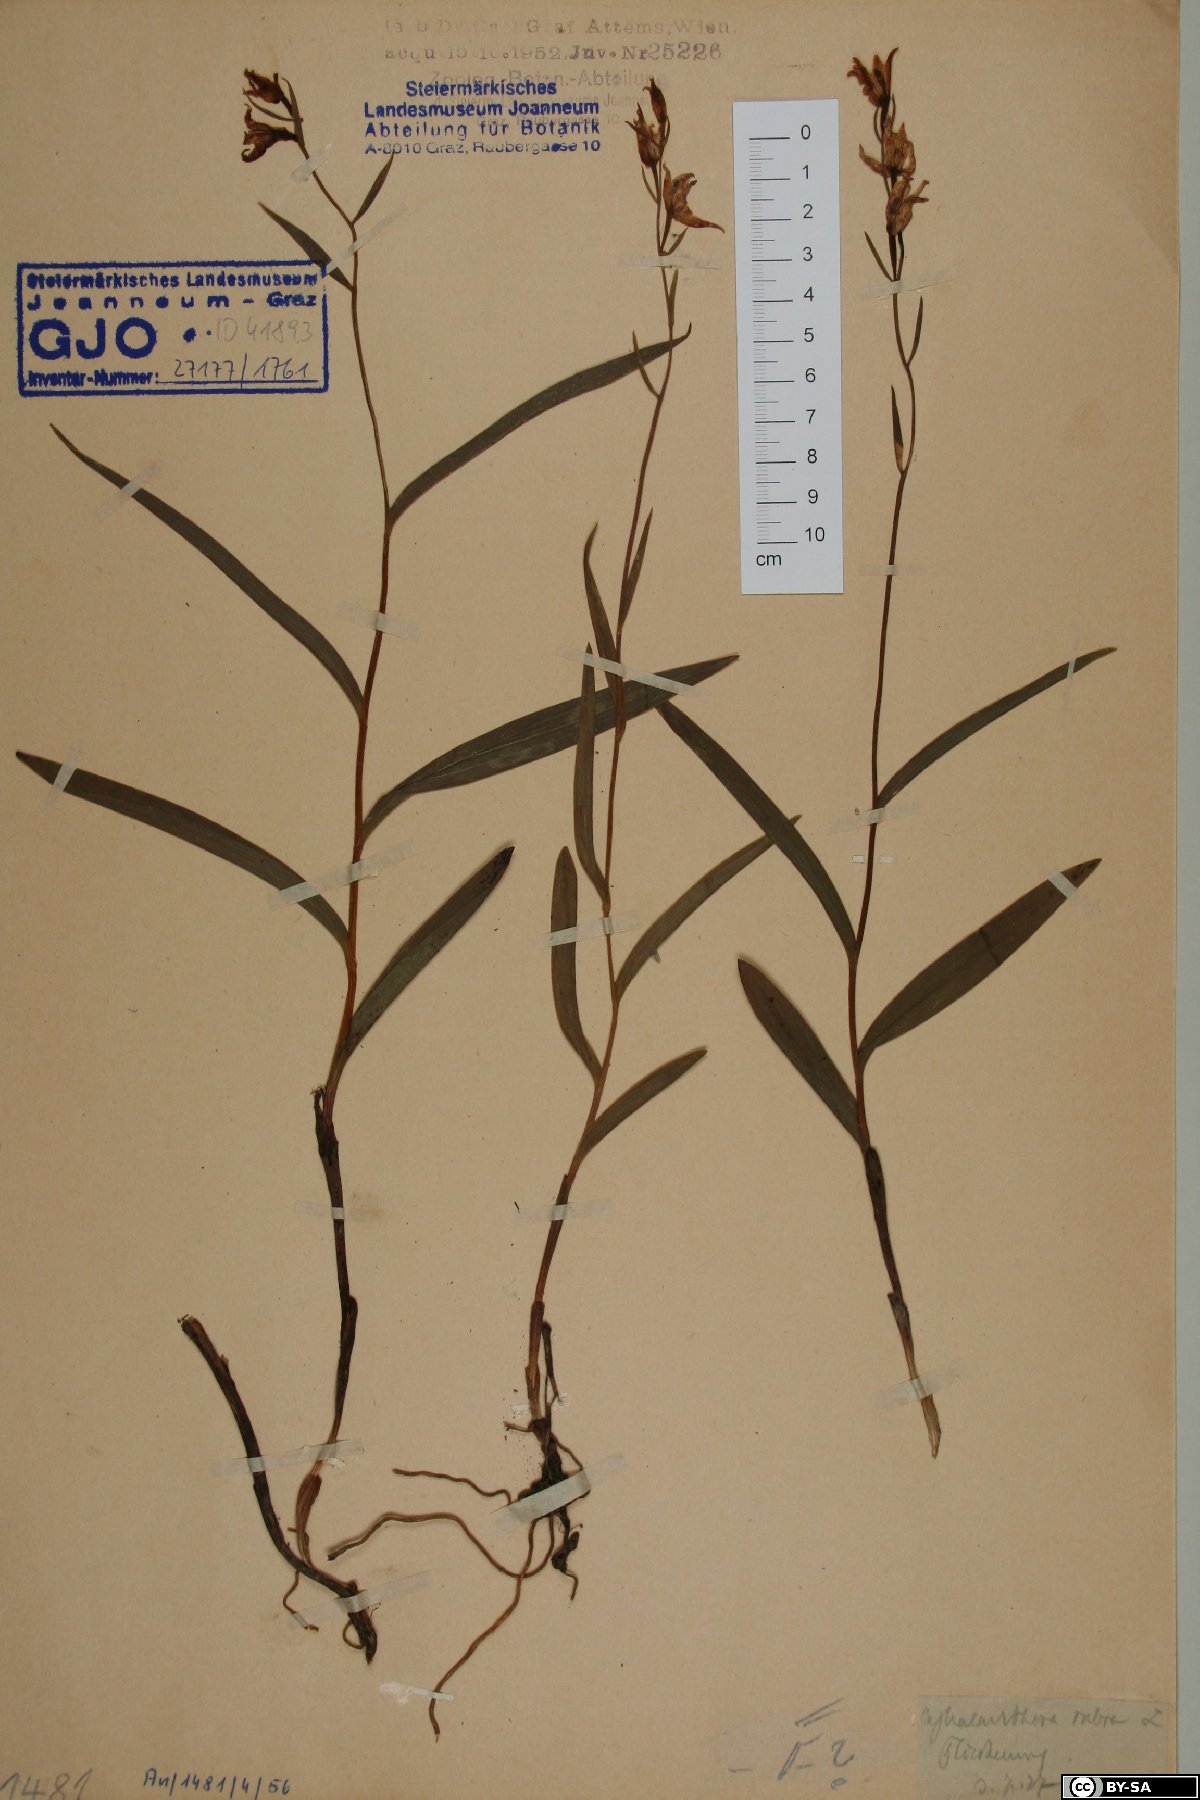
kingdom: Plantae
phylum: Tracheophyta
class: Liliopsida
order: Asparagales
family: Orchidaceae
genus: Cephalanthera
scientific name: Cephalanthera rubra
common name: Red helleborine
